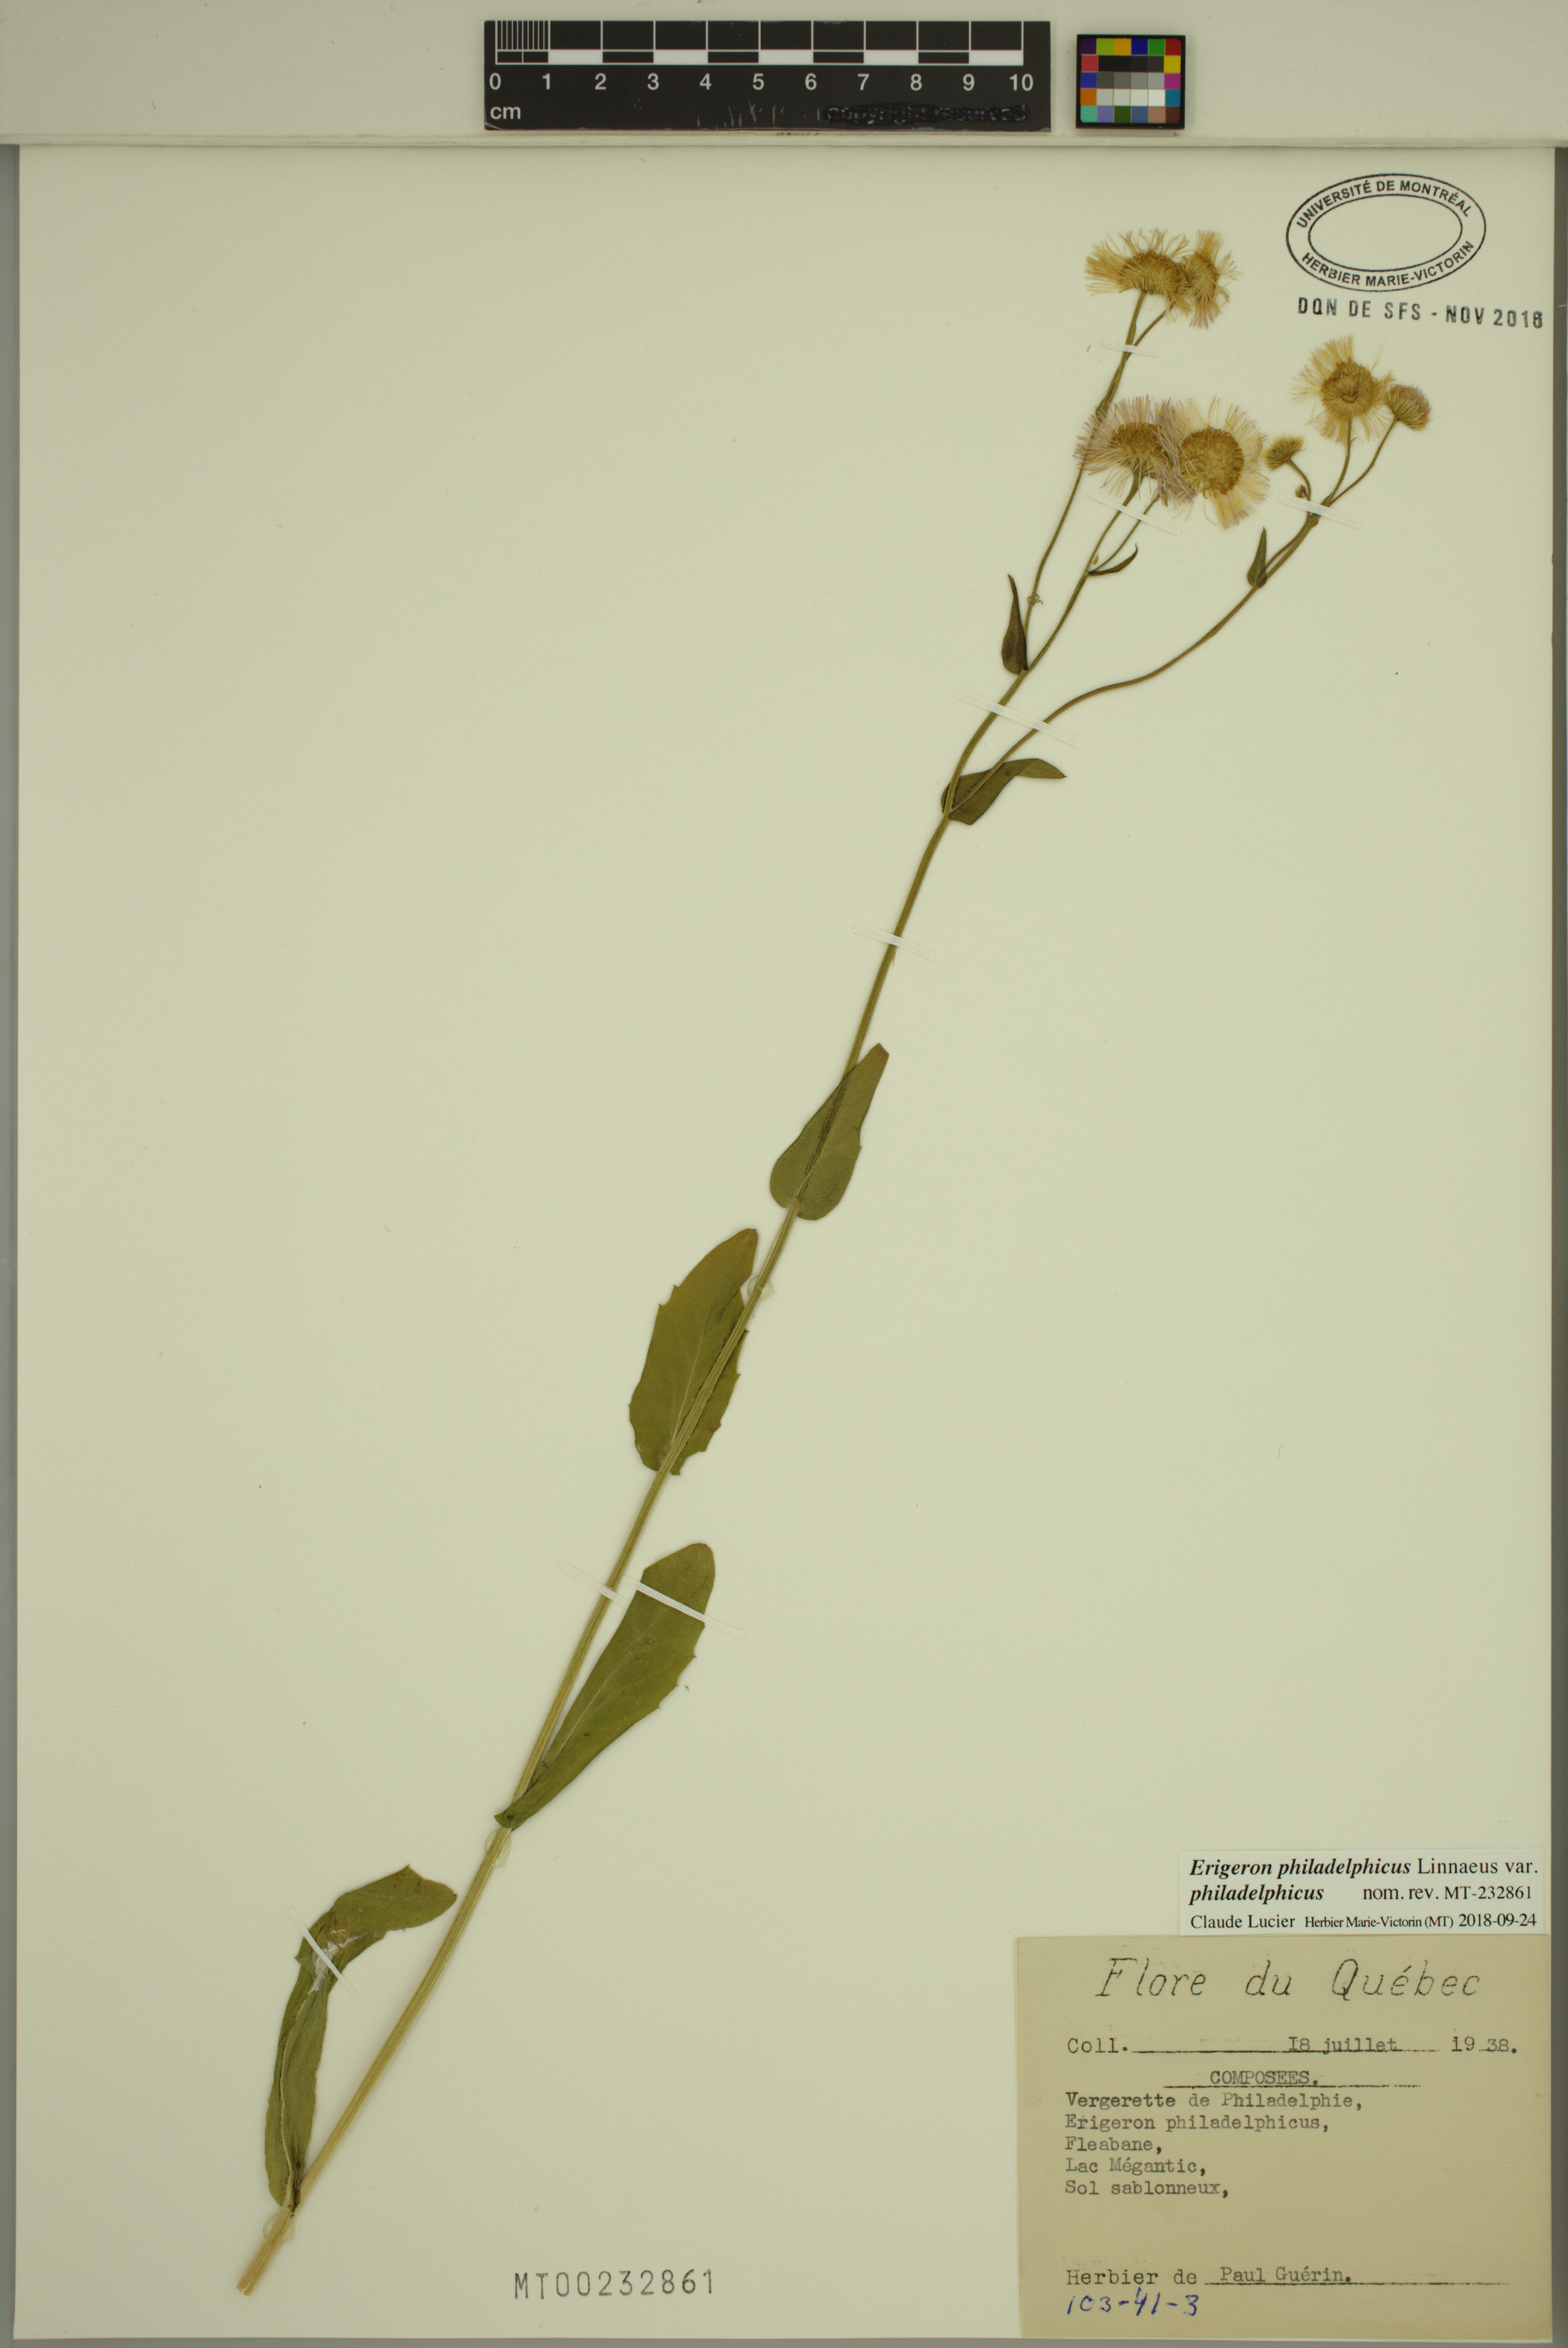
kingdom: Plantae
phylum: Tracheophyta
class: Magnoliopsida
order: Asterales
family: Asteraceae
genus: Erigeron
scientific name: Erigeron philadelphicus
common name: Robin's-plantain
